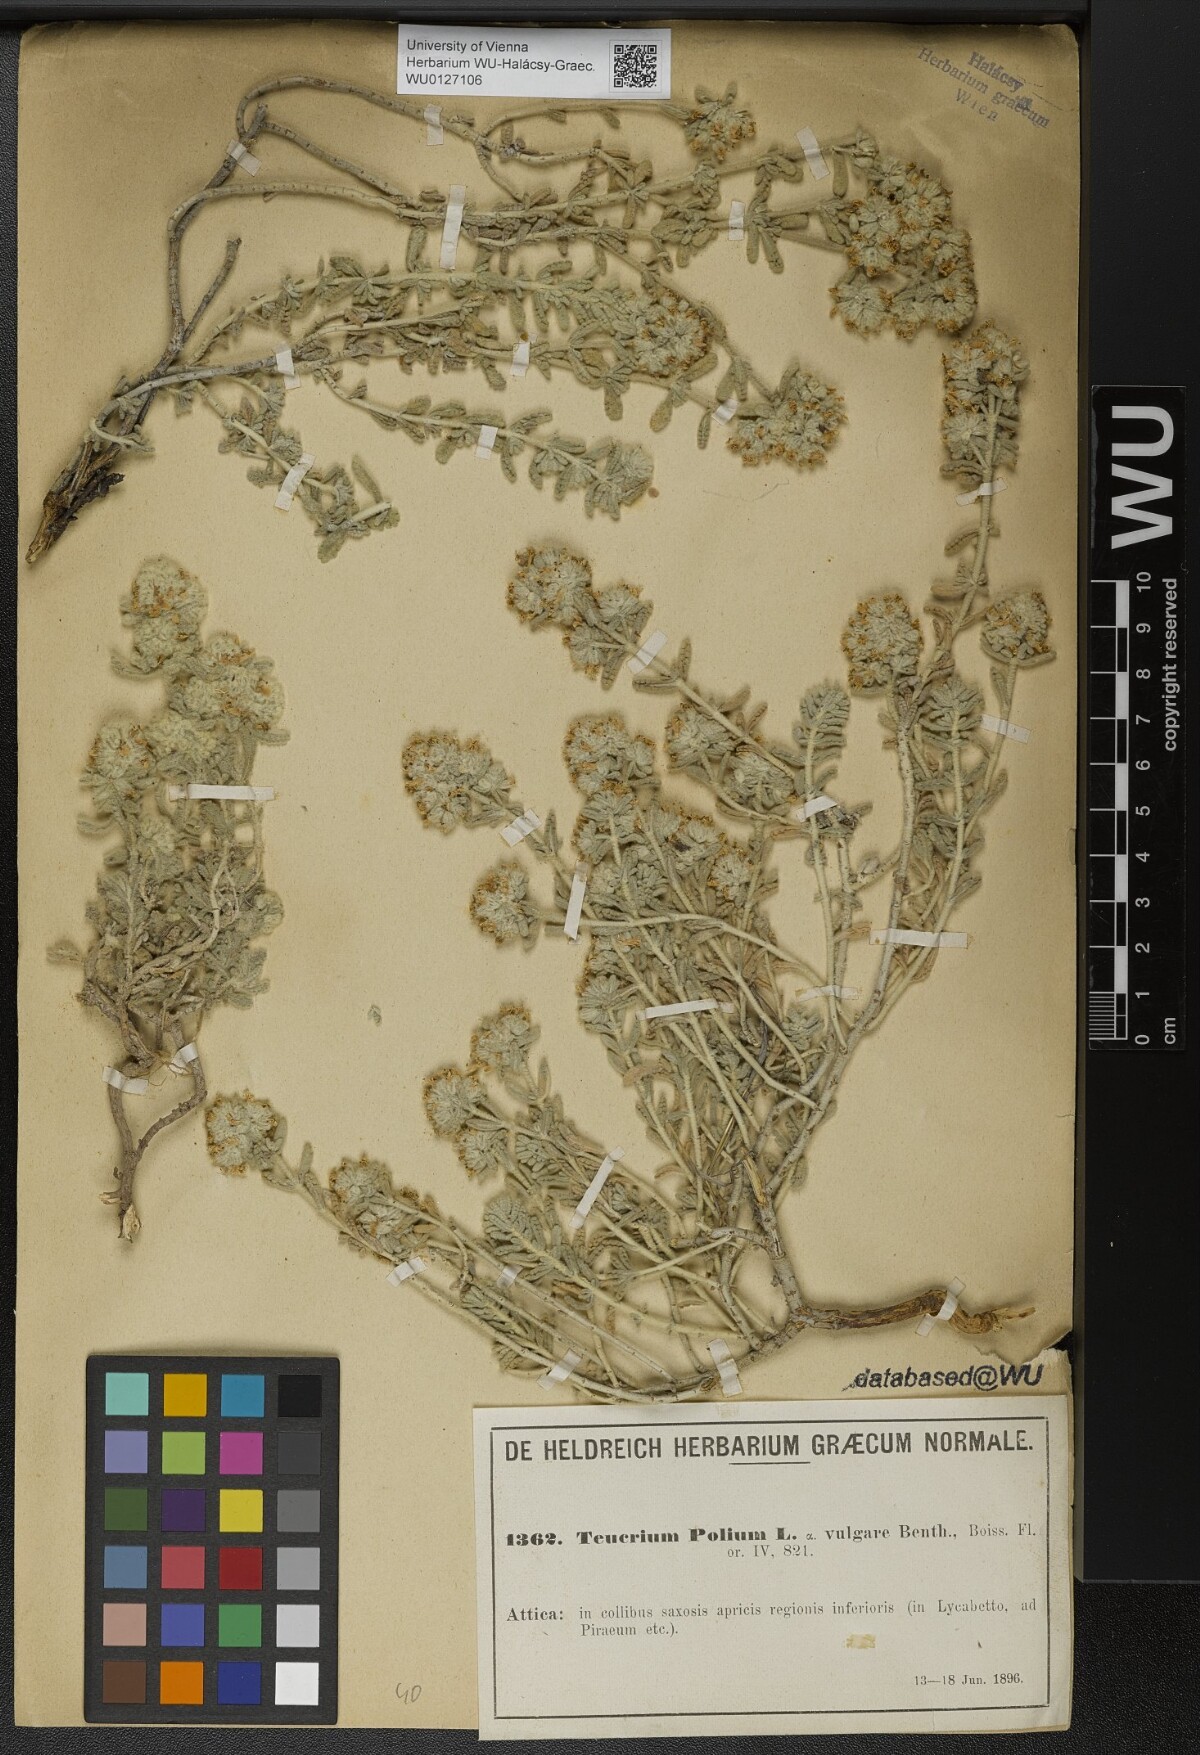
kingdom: Plantae
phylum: Tracheophyta
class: Magnoliopsida
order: Lamiales
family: Lamiaceae
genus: Teucrium
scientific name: Teucrium polium
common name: Poley
